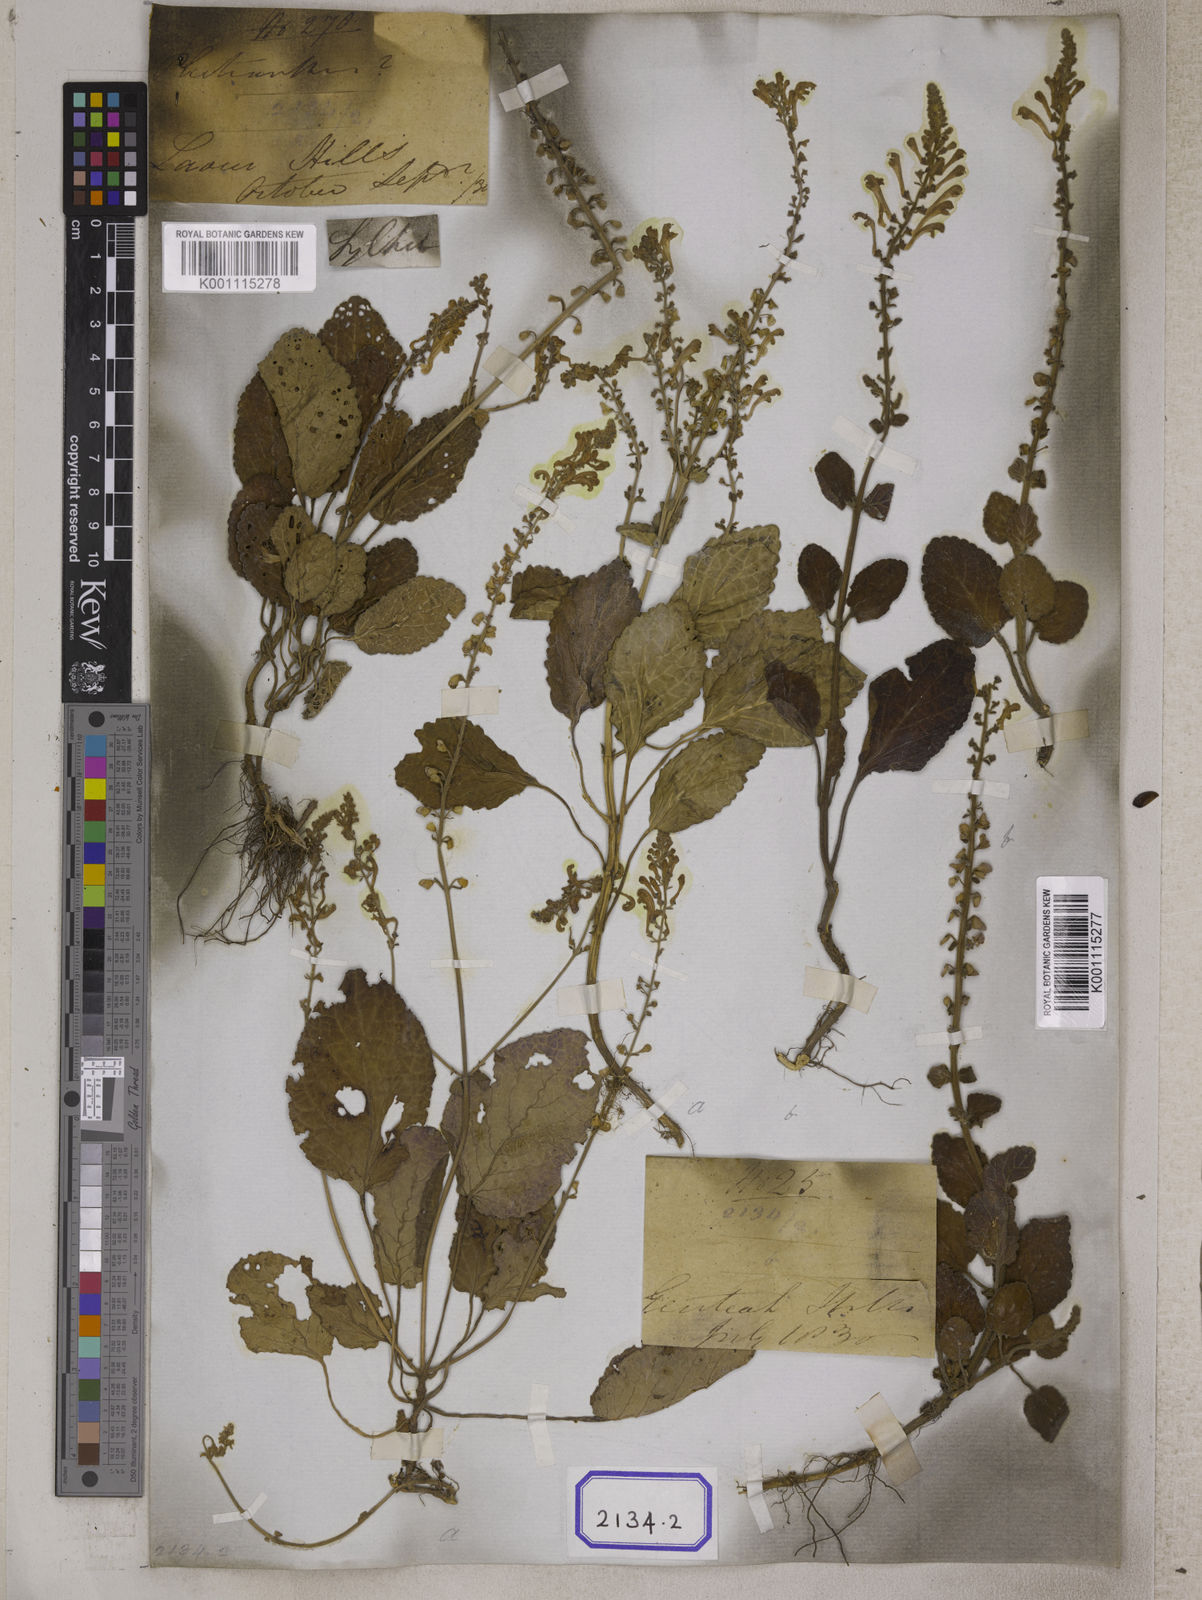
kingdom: Plantae
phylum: Tracheophyta
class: Magnoliopsida
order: Lamiales
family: Lamiaceae
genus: Scutellaria
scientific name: Scutellaria indica
